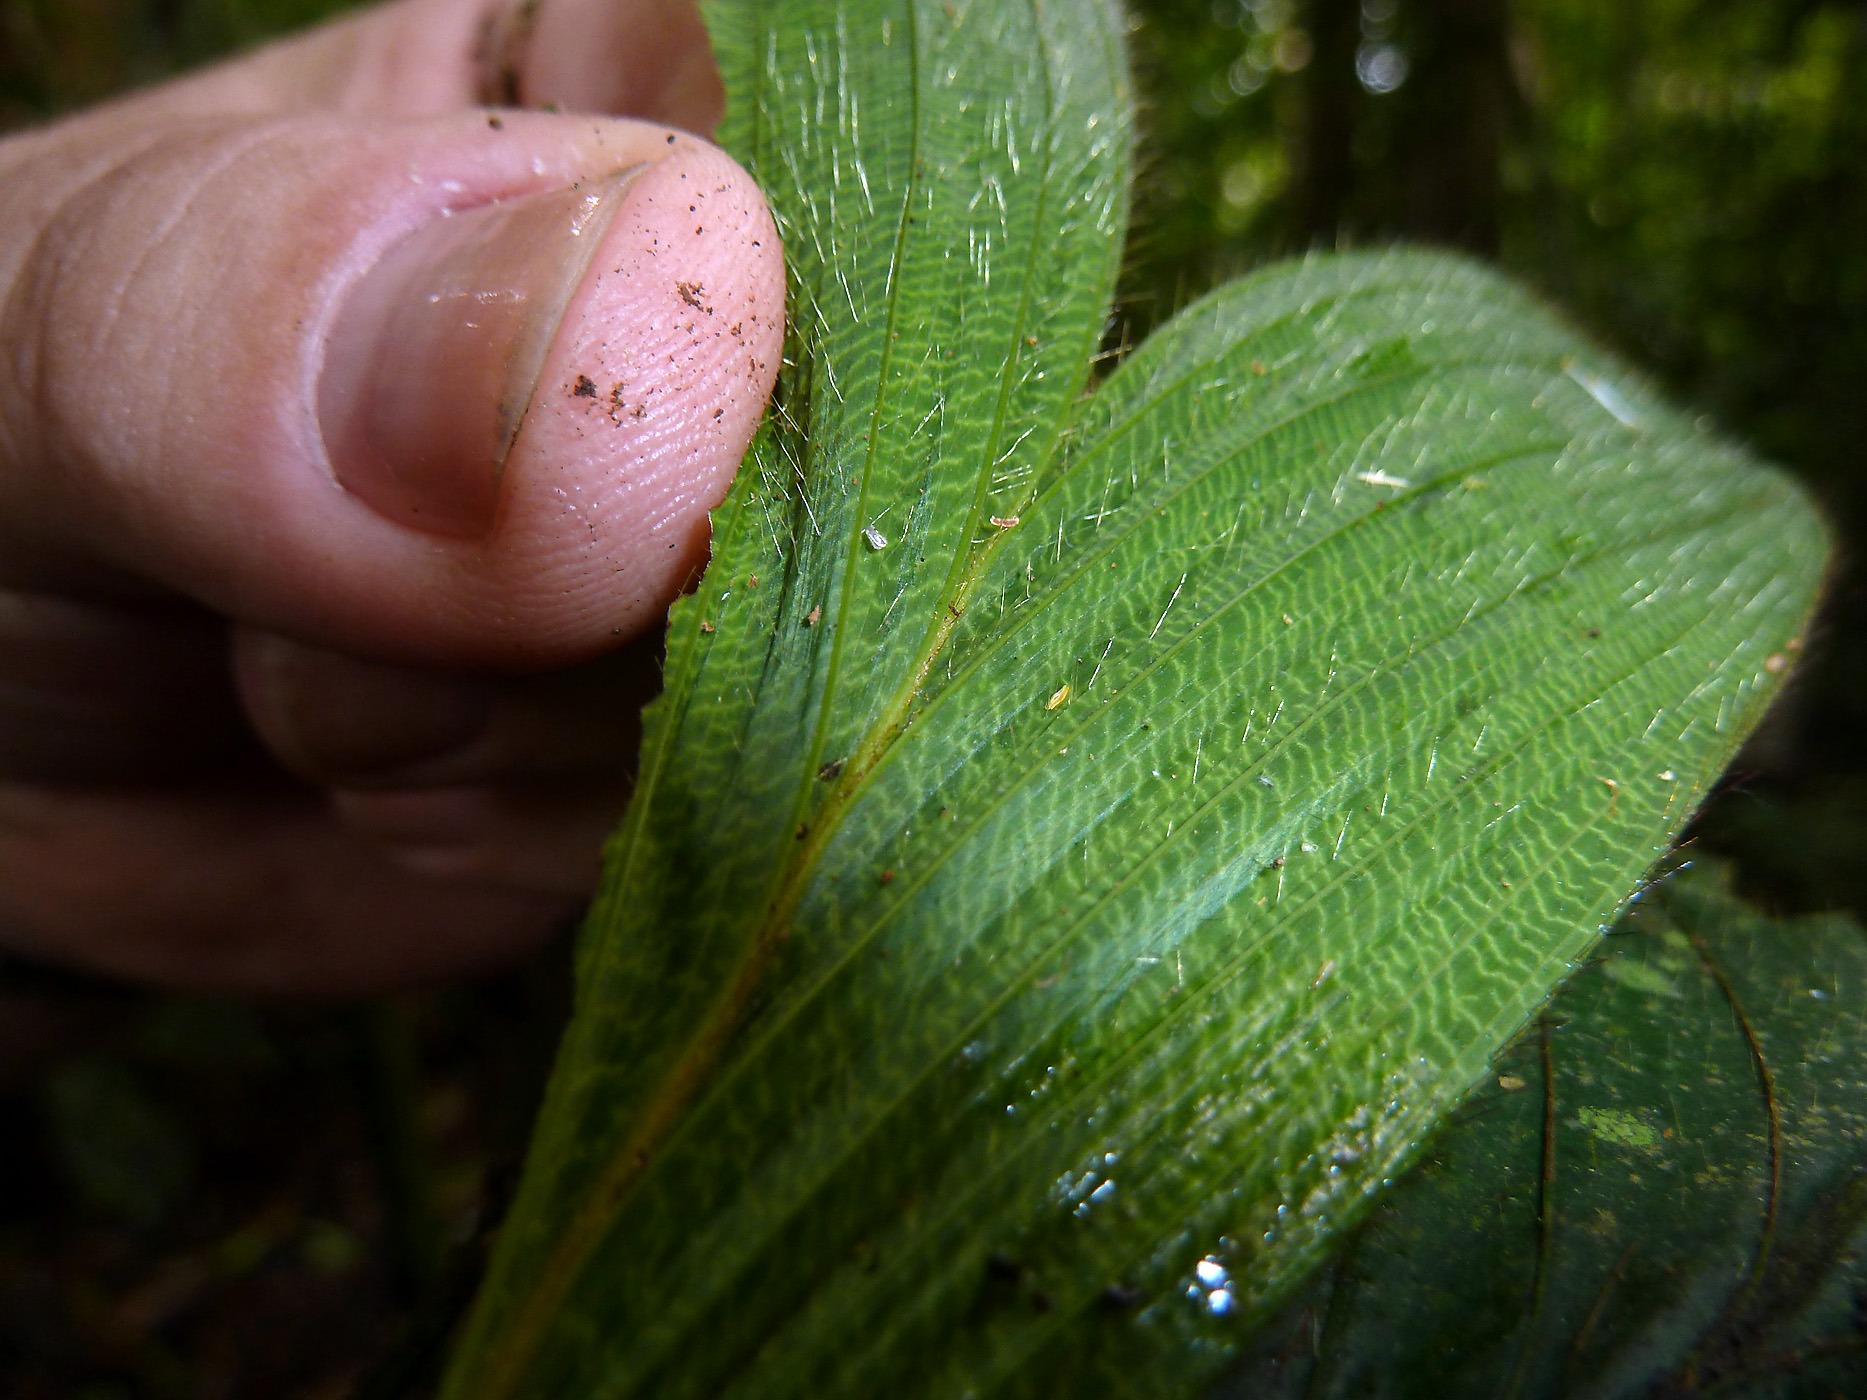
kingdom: Plantae
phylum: Tracheophyta
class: Liliopsida
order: Arecales
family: Arecaceae
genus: Bactris
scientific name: Bactris hirta
